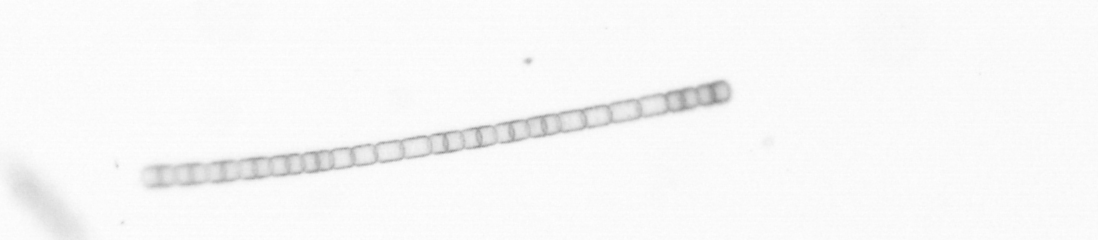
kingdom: Chromista
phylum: Ochrophyta
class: Bacillariophyceae
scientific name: Bacillariophyceae
